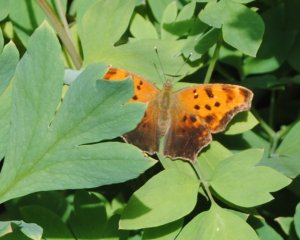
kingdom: Animalia
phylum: Arthropoda
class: Insecta
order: Lepidoptera
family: Nymphalidae
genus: Polygonia
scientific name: Polygonia comma
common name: Eastern Comma
